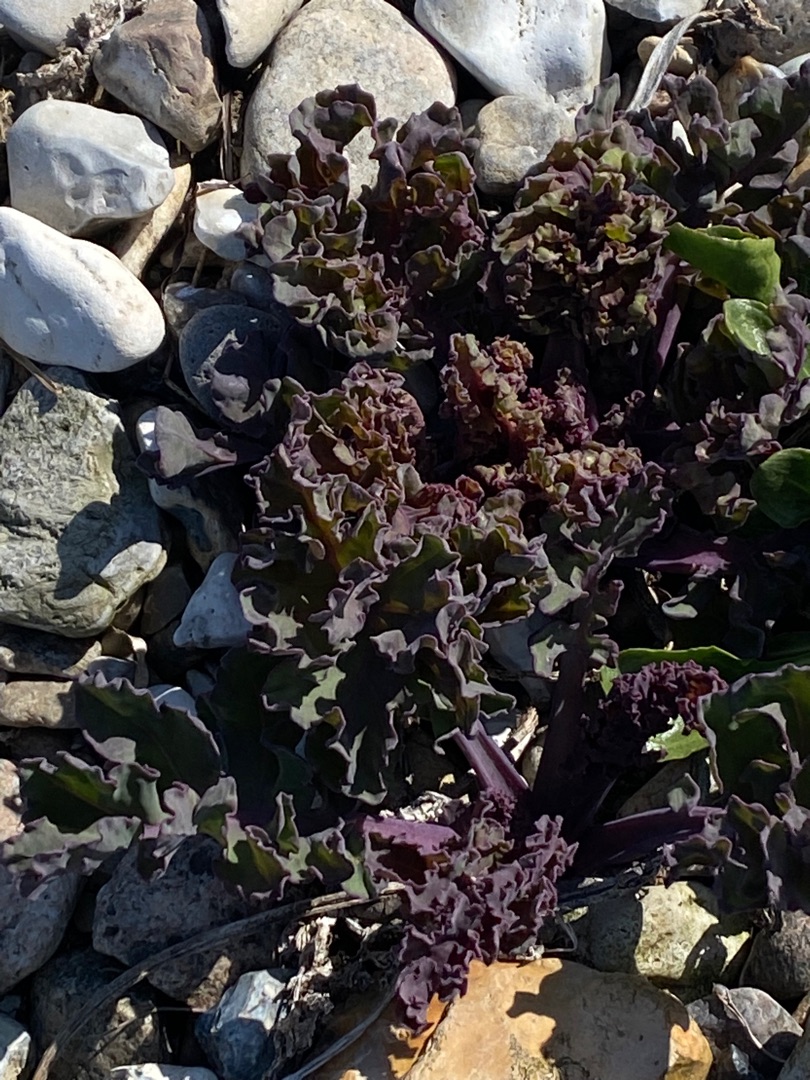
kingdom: Plantae
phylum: Tracheophyta
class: Magnoliopsida
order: Brassicales
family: Brassicaceae
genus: Crambe
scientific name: Crambe maritima
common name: Strandkål
